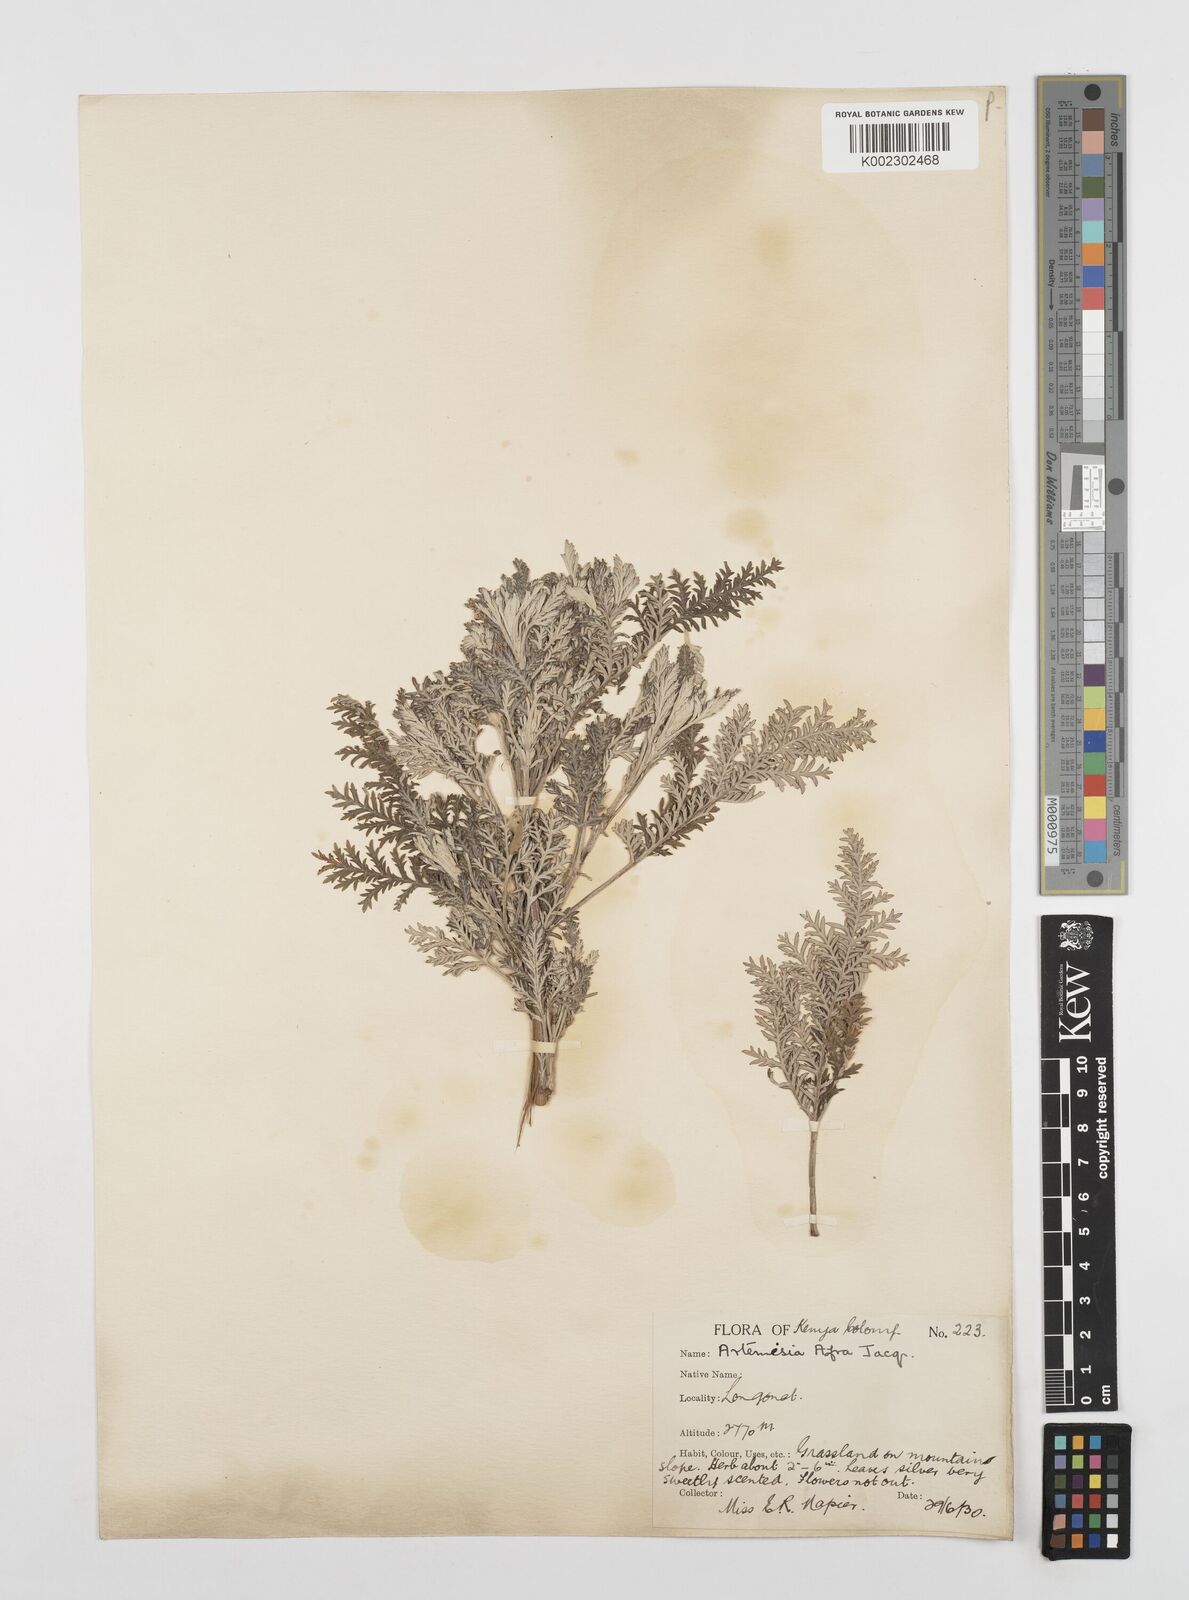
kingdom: Plantae
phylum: Tracheophyta
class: Magnoliopsida
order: Asterales
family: Asteraceae
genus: Artemisia
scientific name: Artemisia afra
